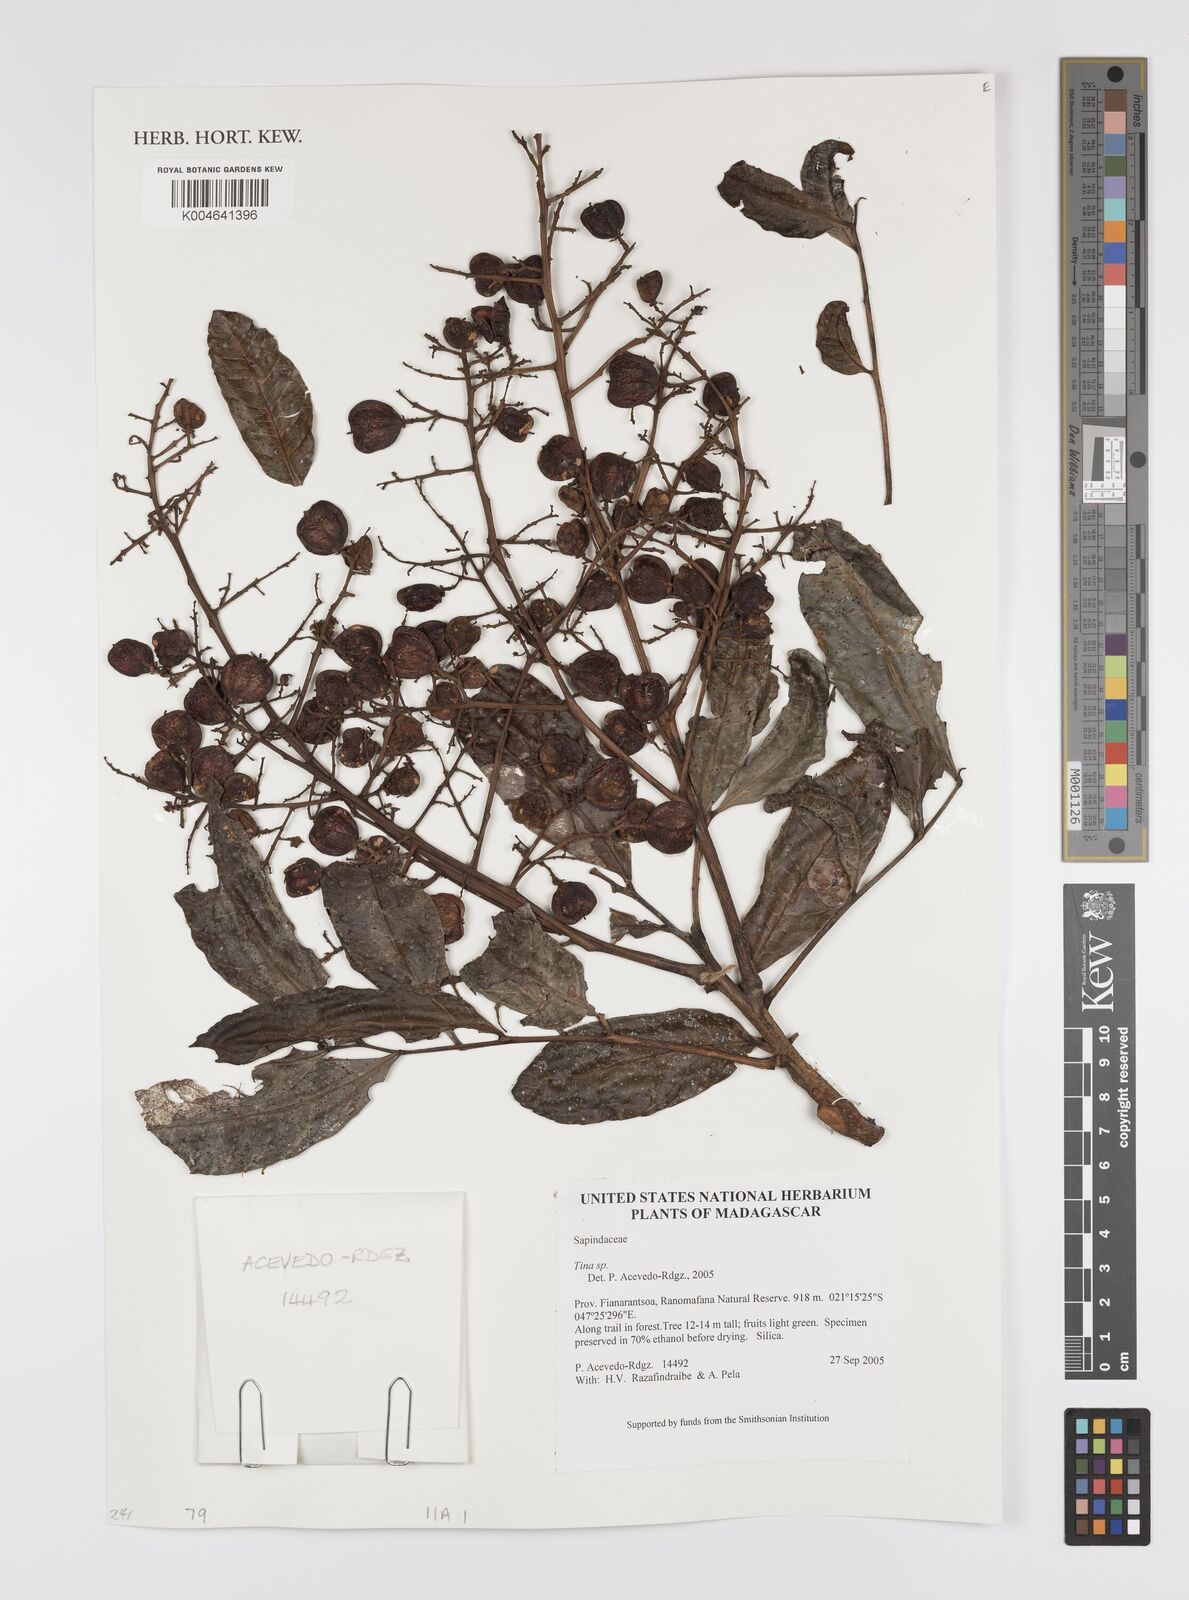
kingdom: Plantae
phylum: Tracheophyta
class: Magnoliopsida
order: Sapindales
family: Sapindaceae
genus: Tina
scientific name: Tina
